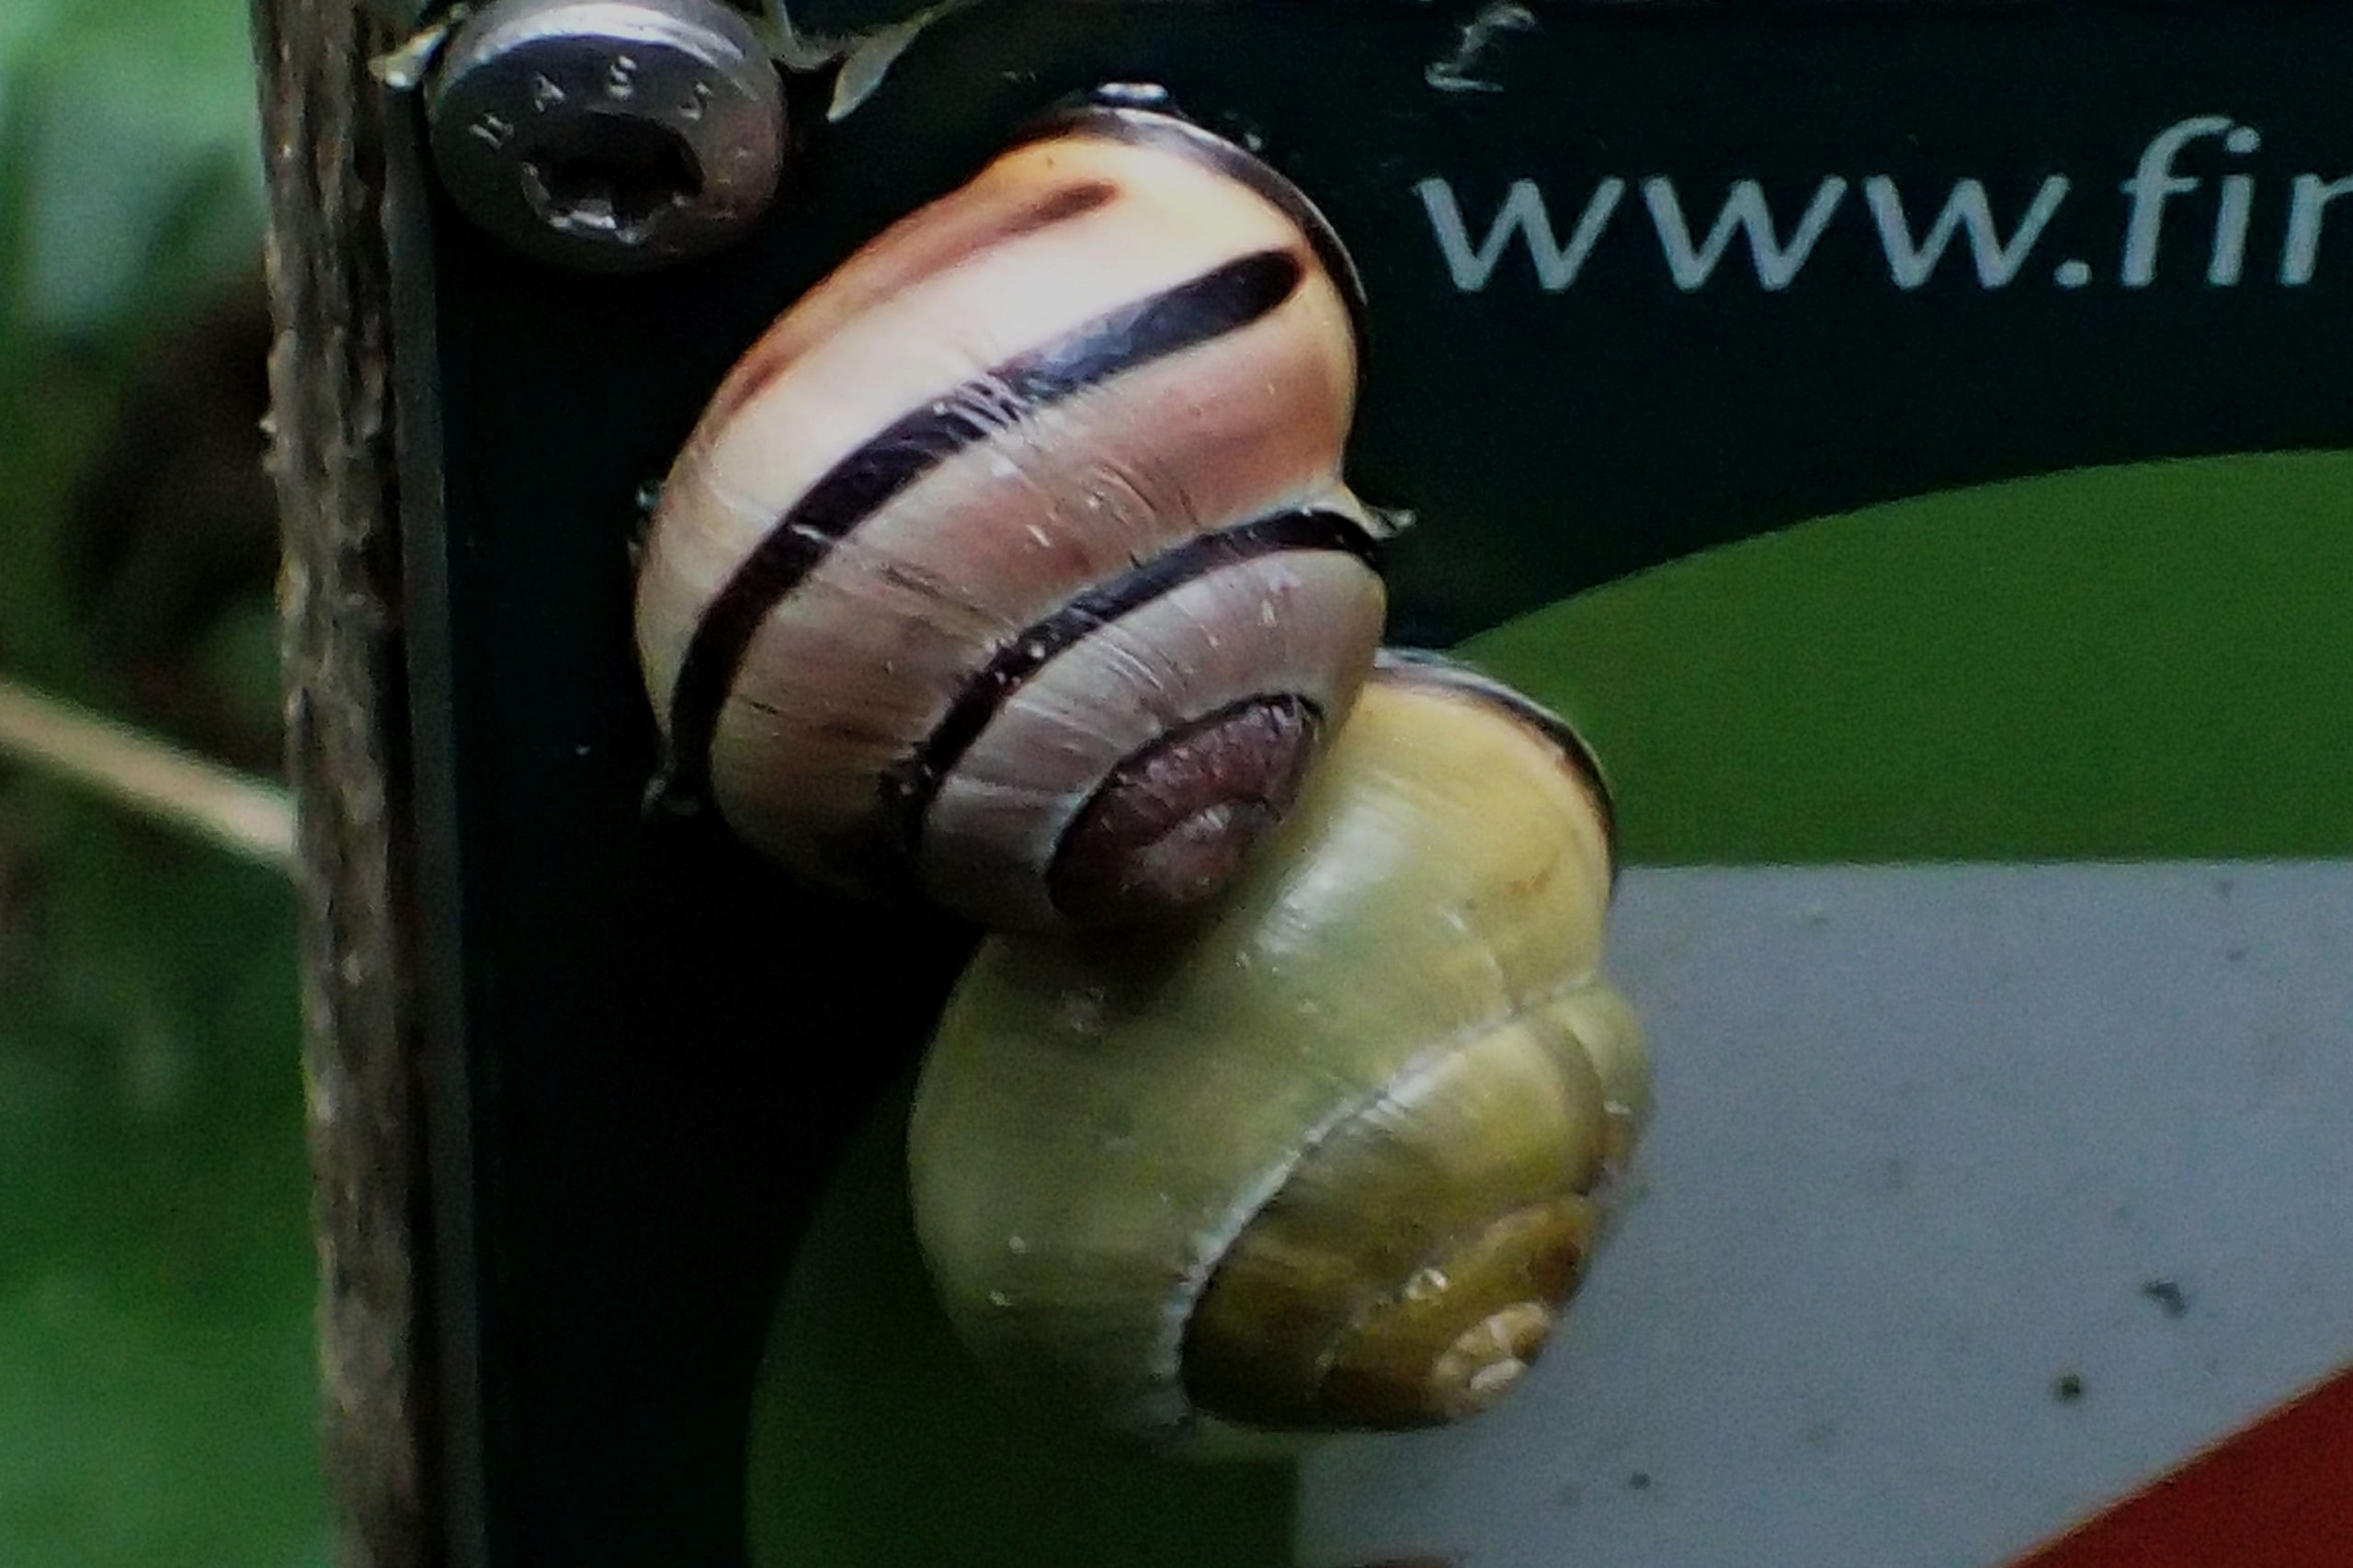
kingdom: Animalia
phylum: Mollusca
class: Gastropoda
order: Stylommatophora
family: Helicidae
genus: Cepaea
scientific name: Cepaea nemoralis
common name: Lundsnegl
